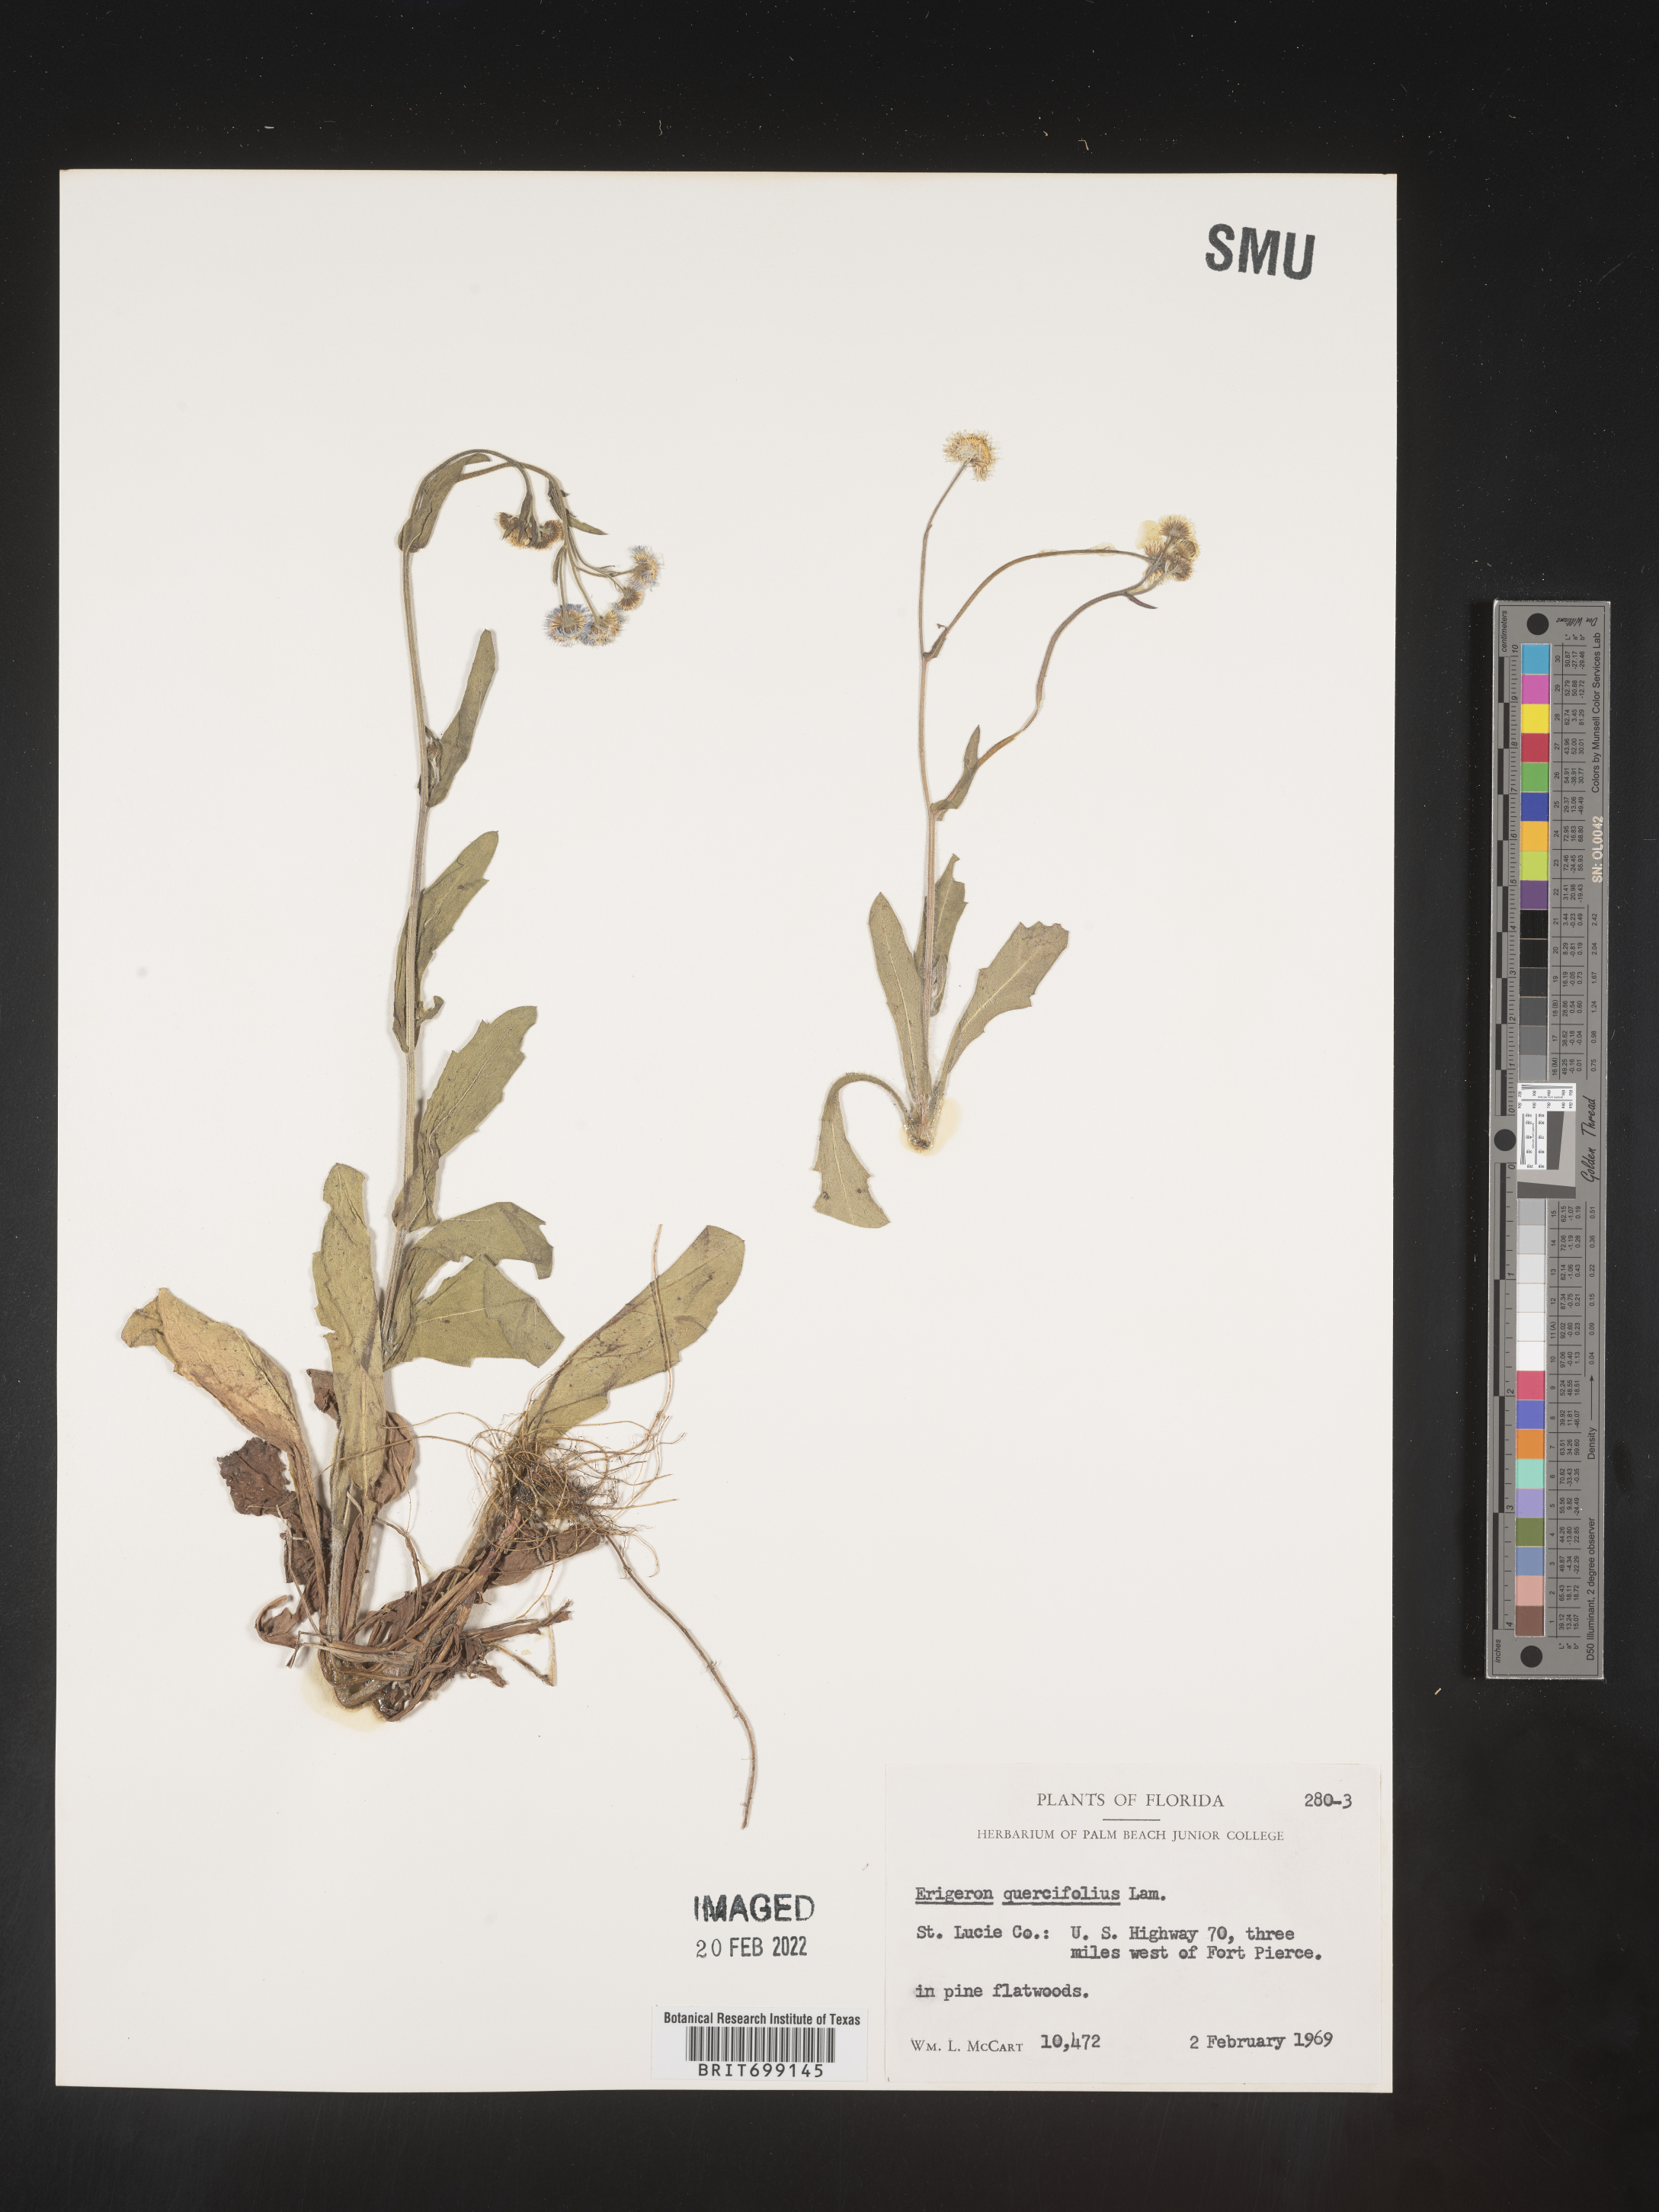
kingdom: Plantae
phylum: Tracheophyta
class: Magnoliopsida
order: Asterales
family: Asteraceae
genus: Erigeron
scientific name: Erigeron quercifolius
